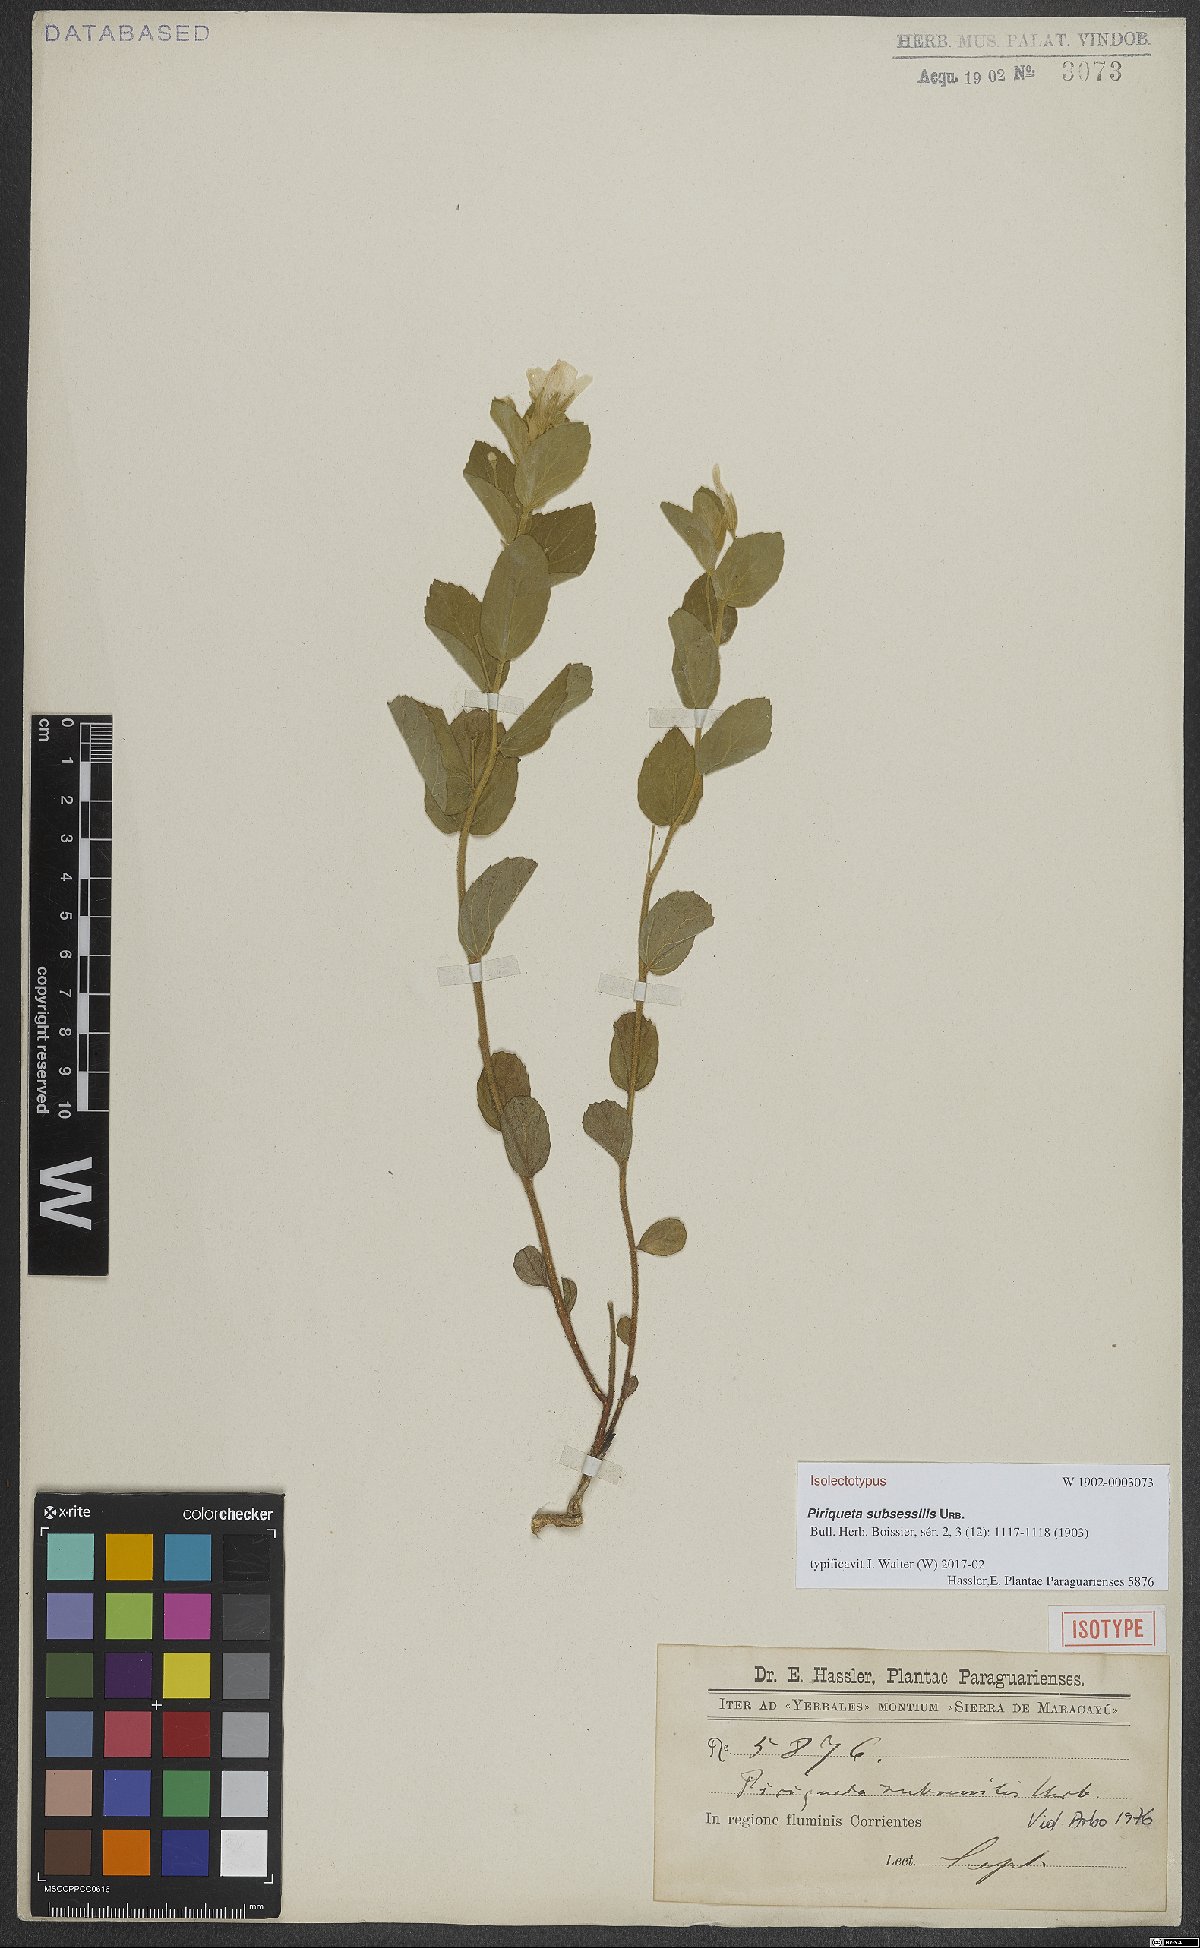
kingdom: Plantae
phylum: Tracheophyta
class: Magnoliopsida
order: Malpighiales
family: Turneraceae
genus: Piriqueta
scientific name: Piriqueta subsessilis
